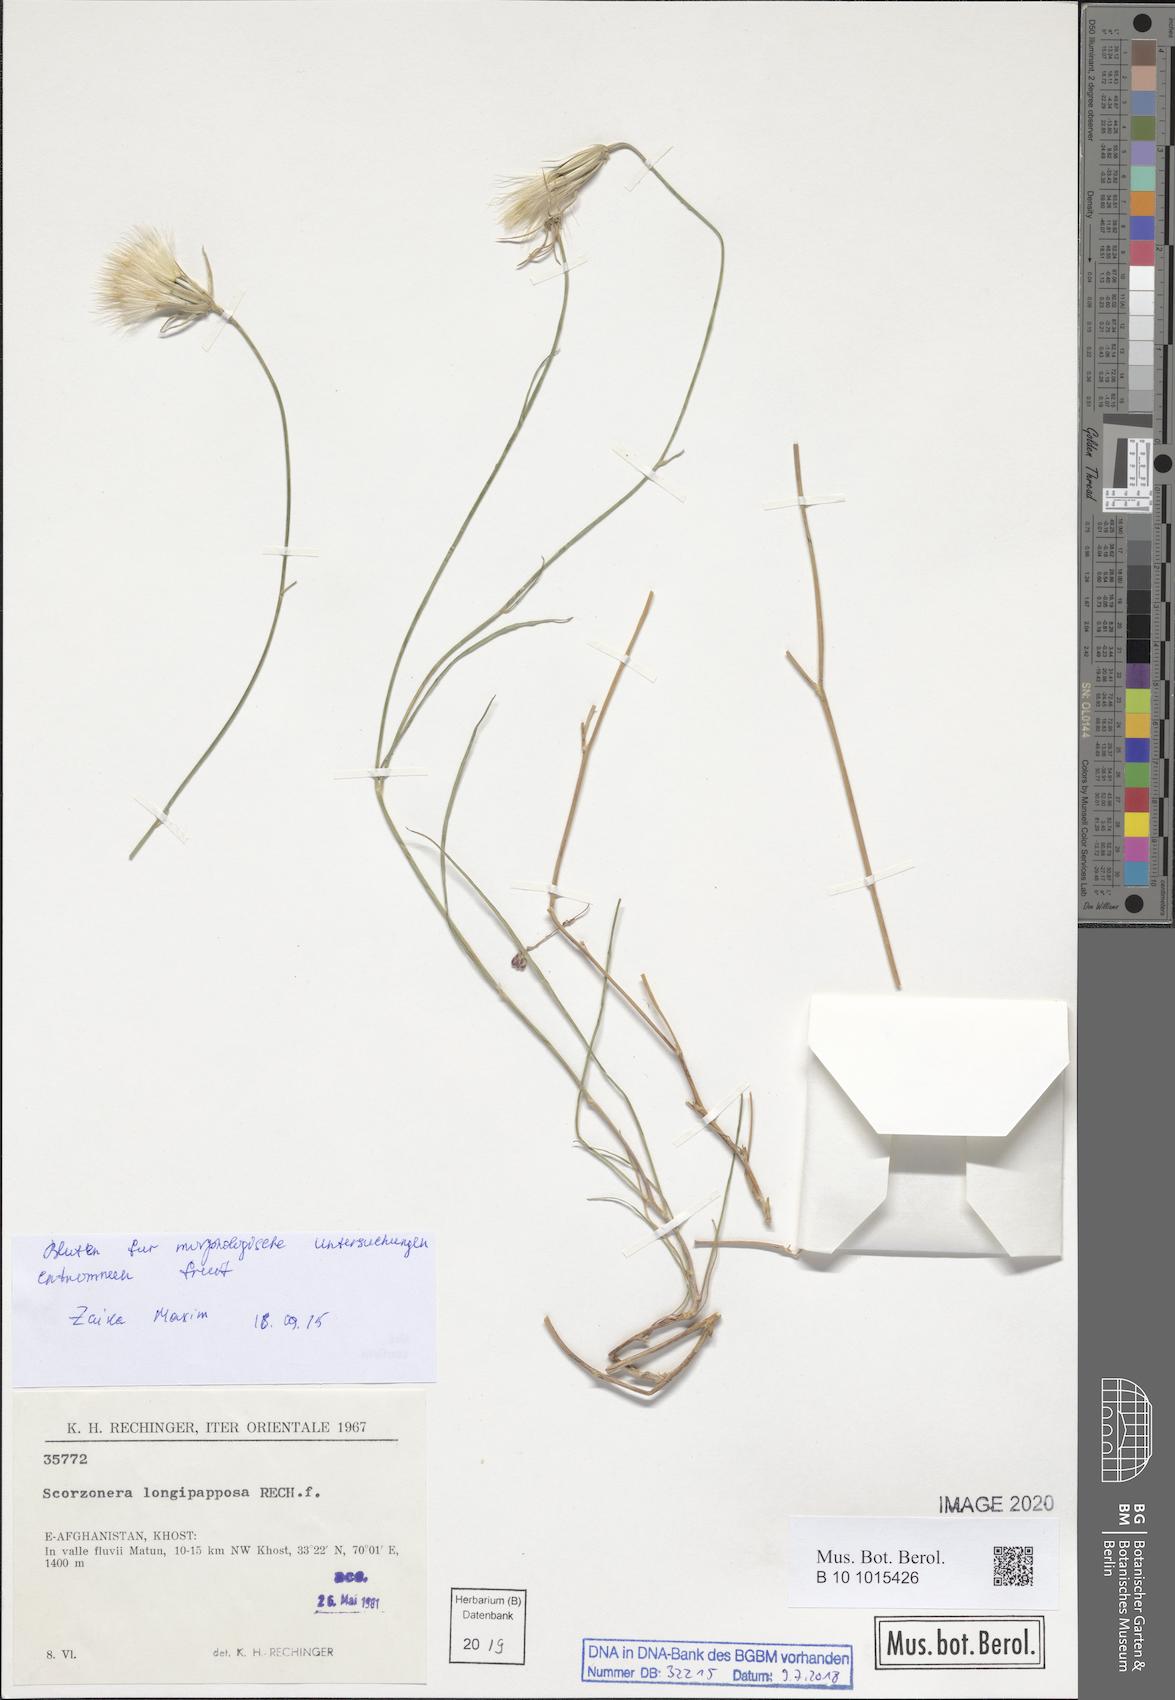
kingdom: Plantae
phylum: Tracheophyta
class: Magnoliopsida
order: Asterales
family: Asteraceae
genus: Ramaliella
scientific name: Ramaliella longipapposa
